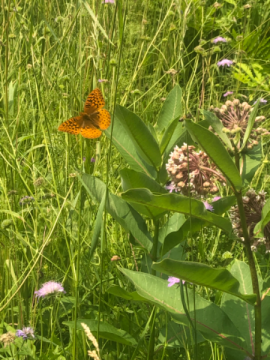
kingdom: Animalia
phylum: Arthropoda
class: Insecta
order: Lepidoptera
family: Nymphalidae
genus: Speyeria
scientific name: Speyeria cybele
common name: Great Spangled Fritillary
